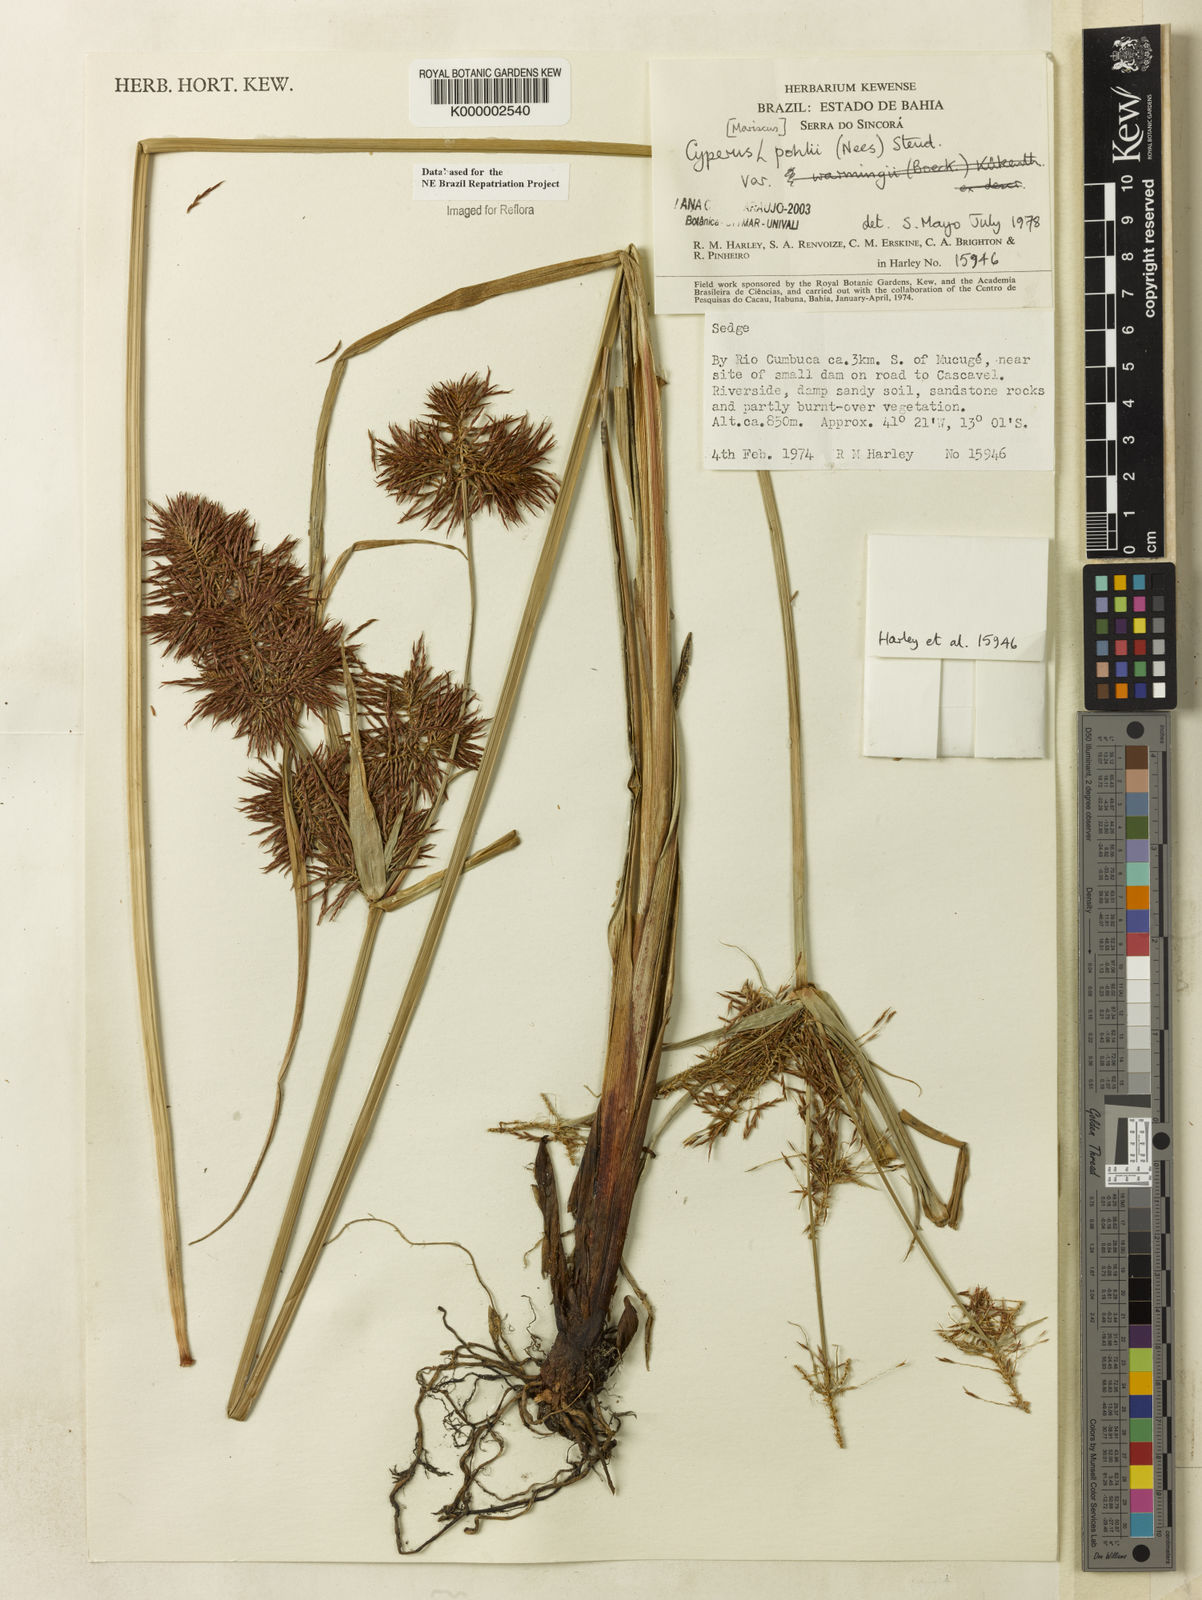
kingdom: Plantae
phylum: Tracheophyta
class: Liliopsida
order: Poales
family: Cyperaceae
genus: Cyperus
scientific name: Cyperus pohlii
